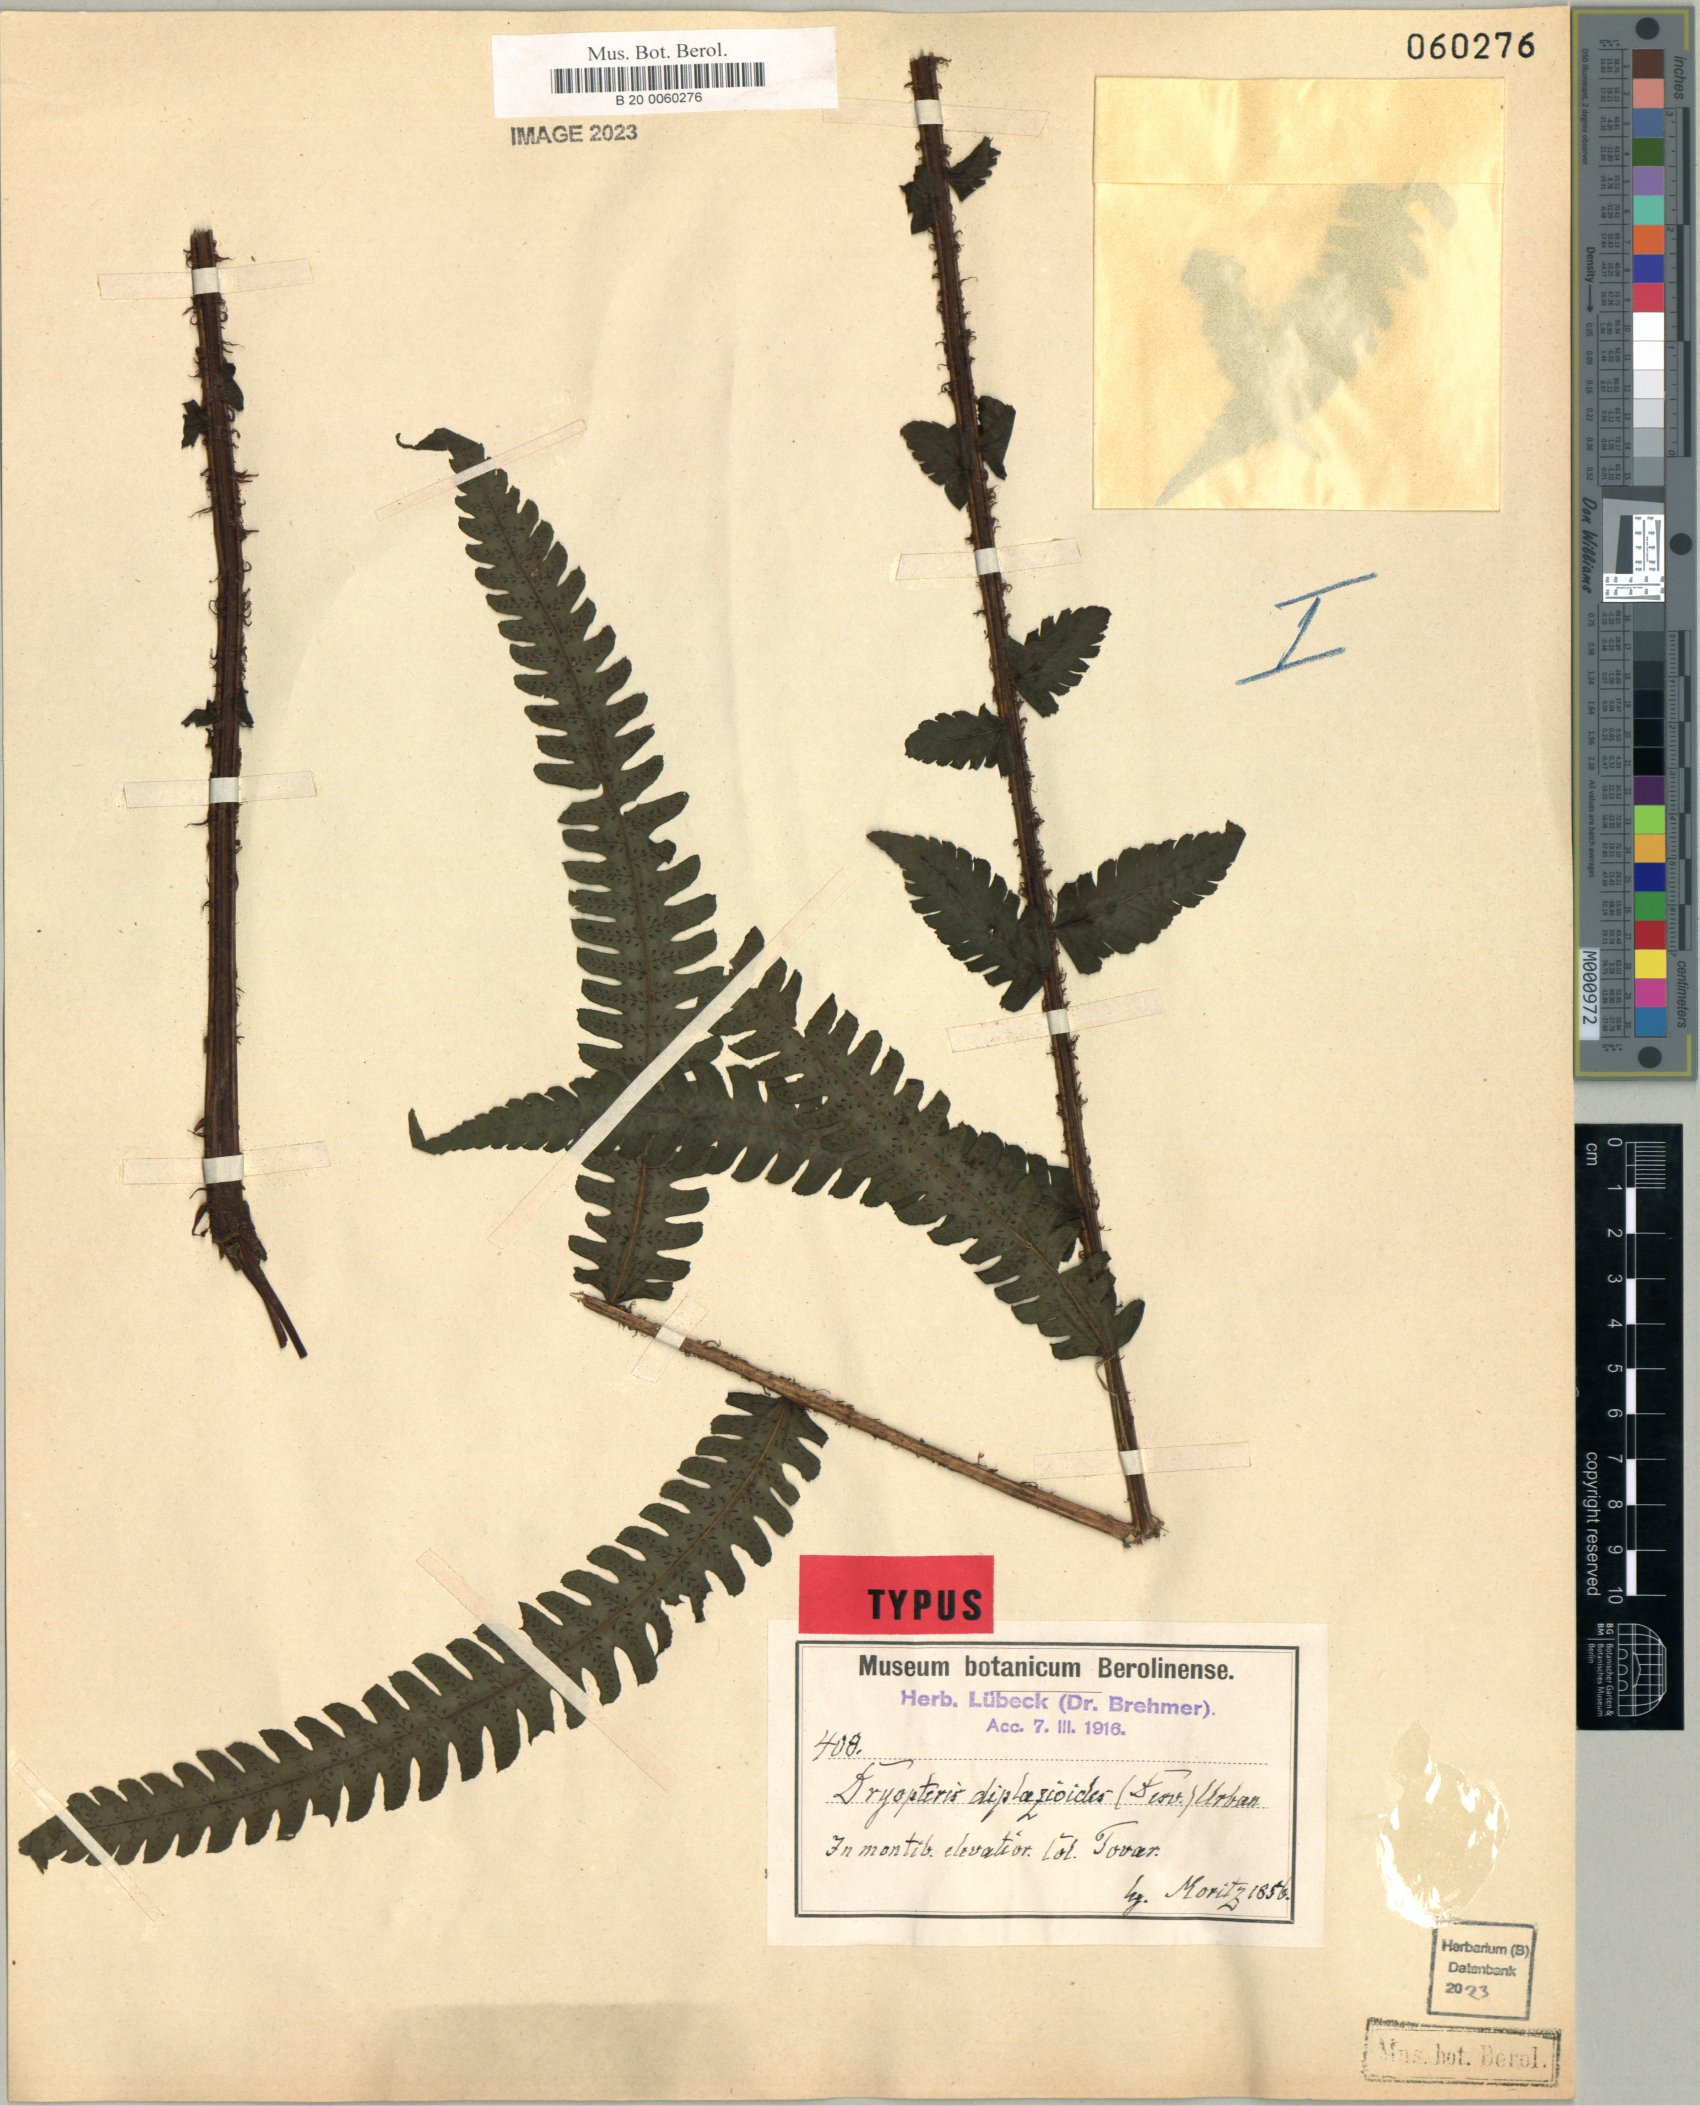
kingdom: Plantae
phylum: Tracheophyta
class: Polypodiopsida
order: Polypodiales
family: Thelypteridaceae
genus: Amauropelta
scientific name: Amauropelta moritziana
